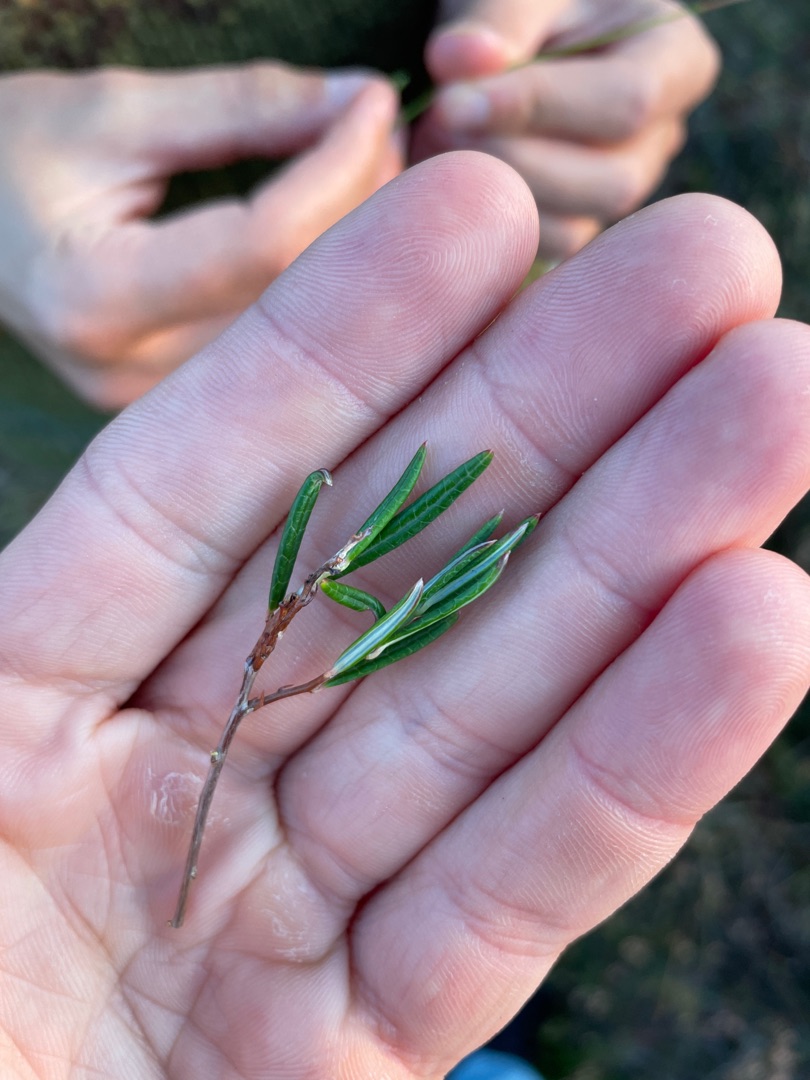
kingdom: Plantae
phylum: Tracheophyta
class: Magnoliopsida
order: Ericales
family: Ericaceae
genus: Andromeda
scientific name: Andromeda polifolia
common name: Rosmarinlyng
